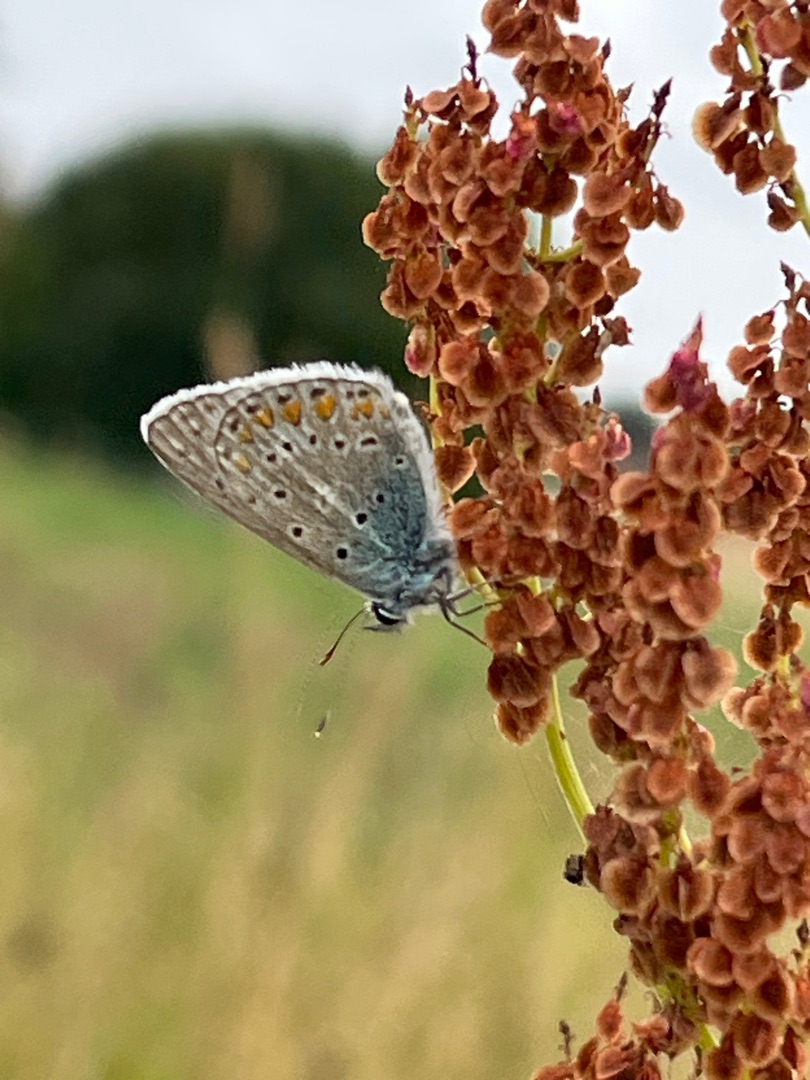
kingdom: Animalia
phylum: Arthropoda
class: Insecta
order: Lepidoptera
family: Lycaenidae
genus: Polyommatus
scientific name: Polyommatus icarus
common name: Almindelig blåfugl
